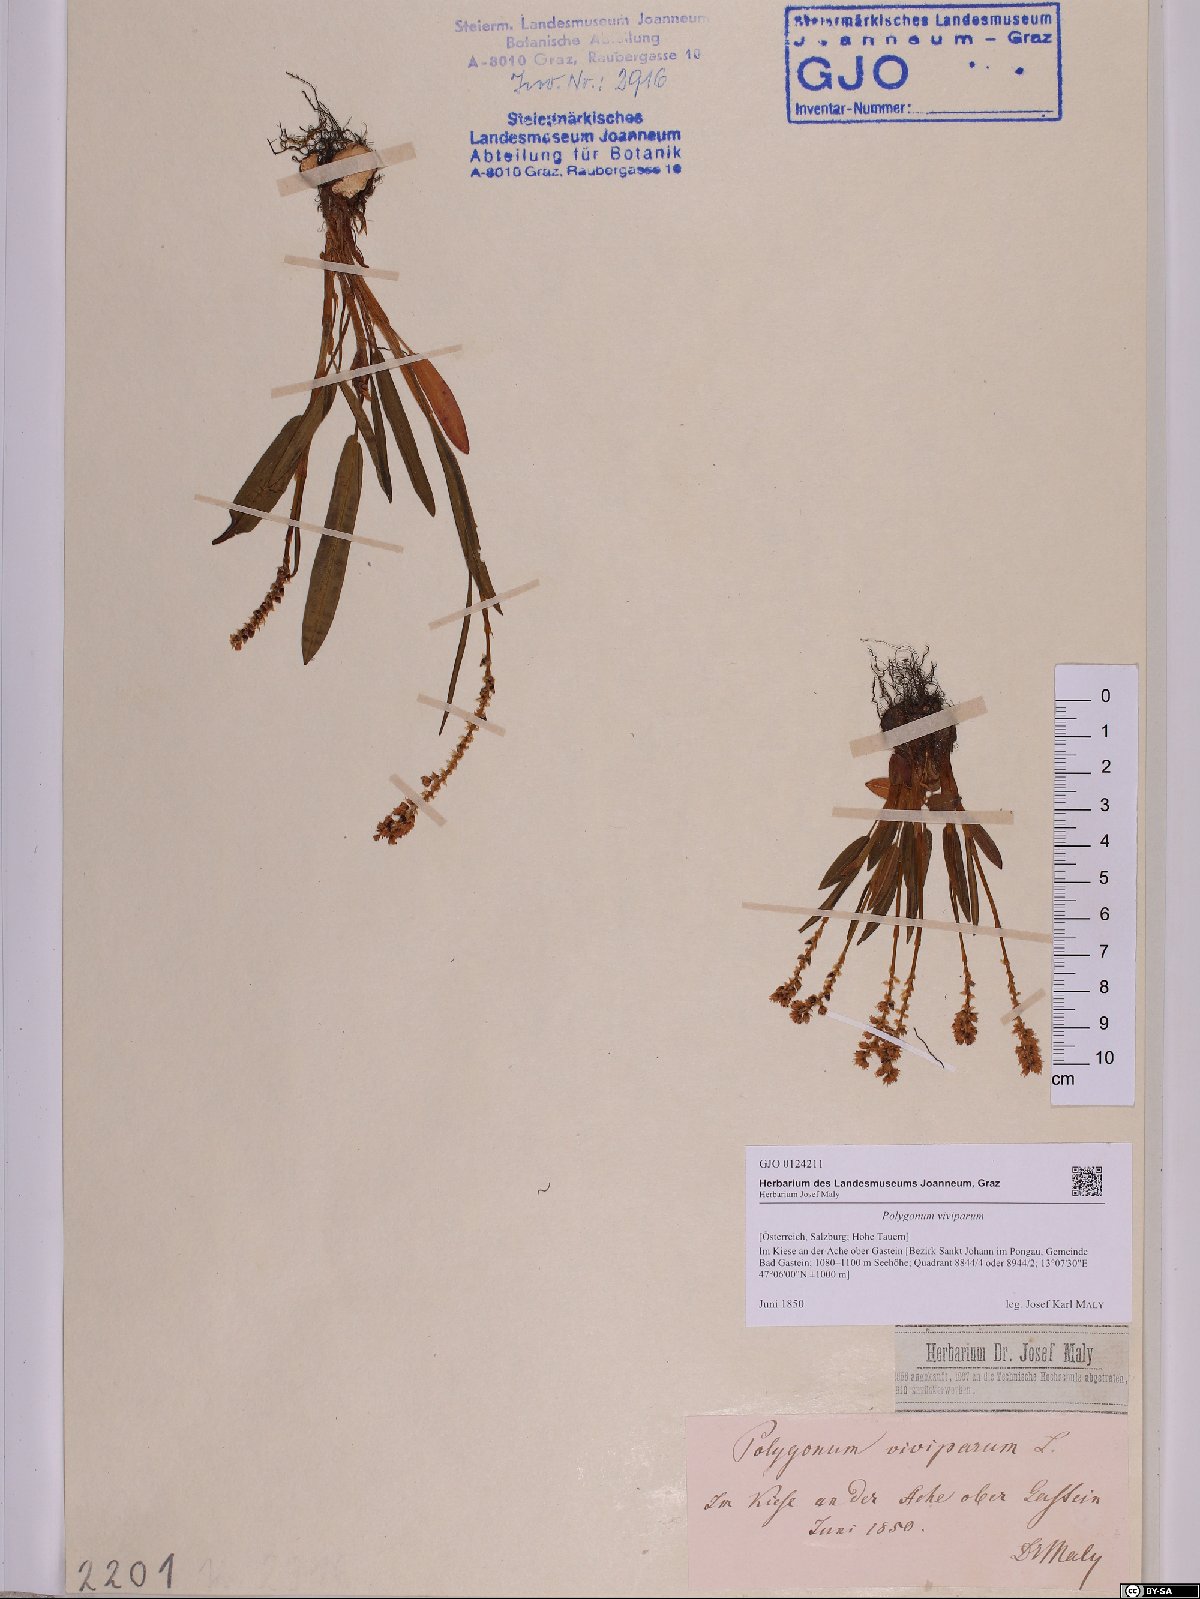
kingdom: Plantae
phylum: Tracheophyta
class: Magnoliopsida
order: Caryophyllales
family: Polygonaceae
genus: Bistorta
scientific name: Bistorta vivipara
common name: Alpine bistort
